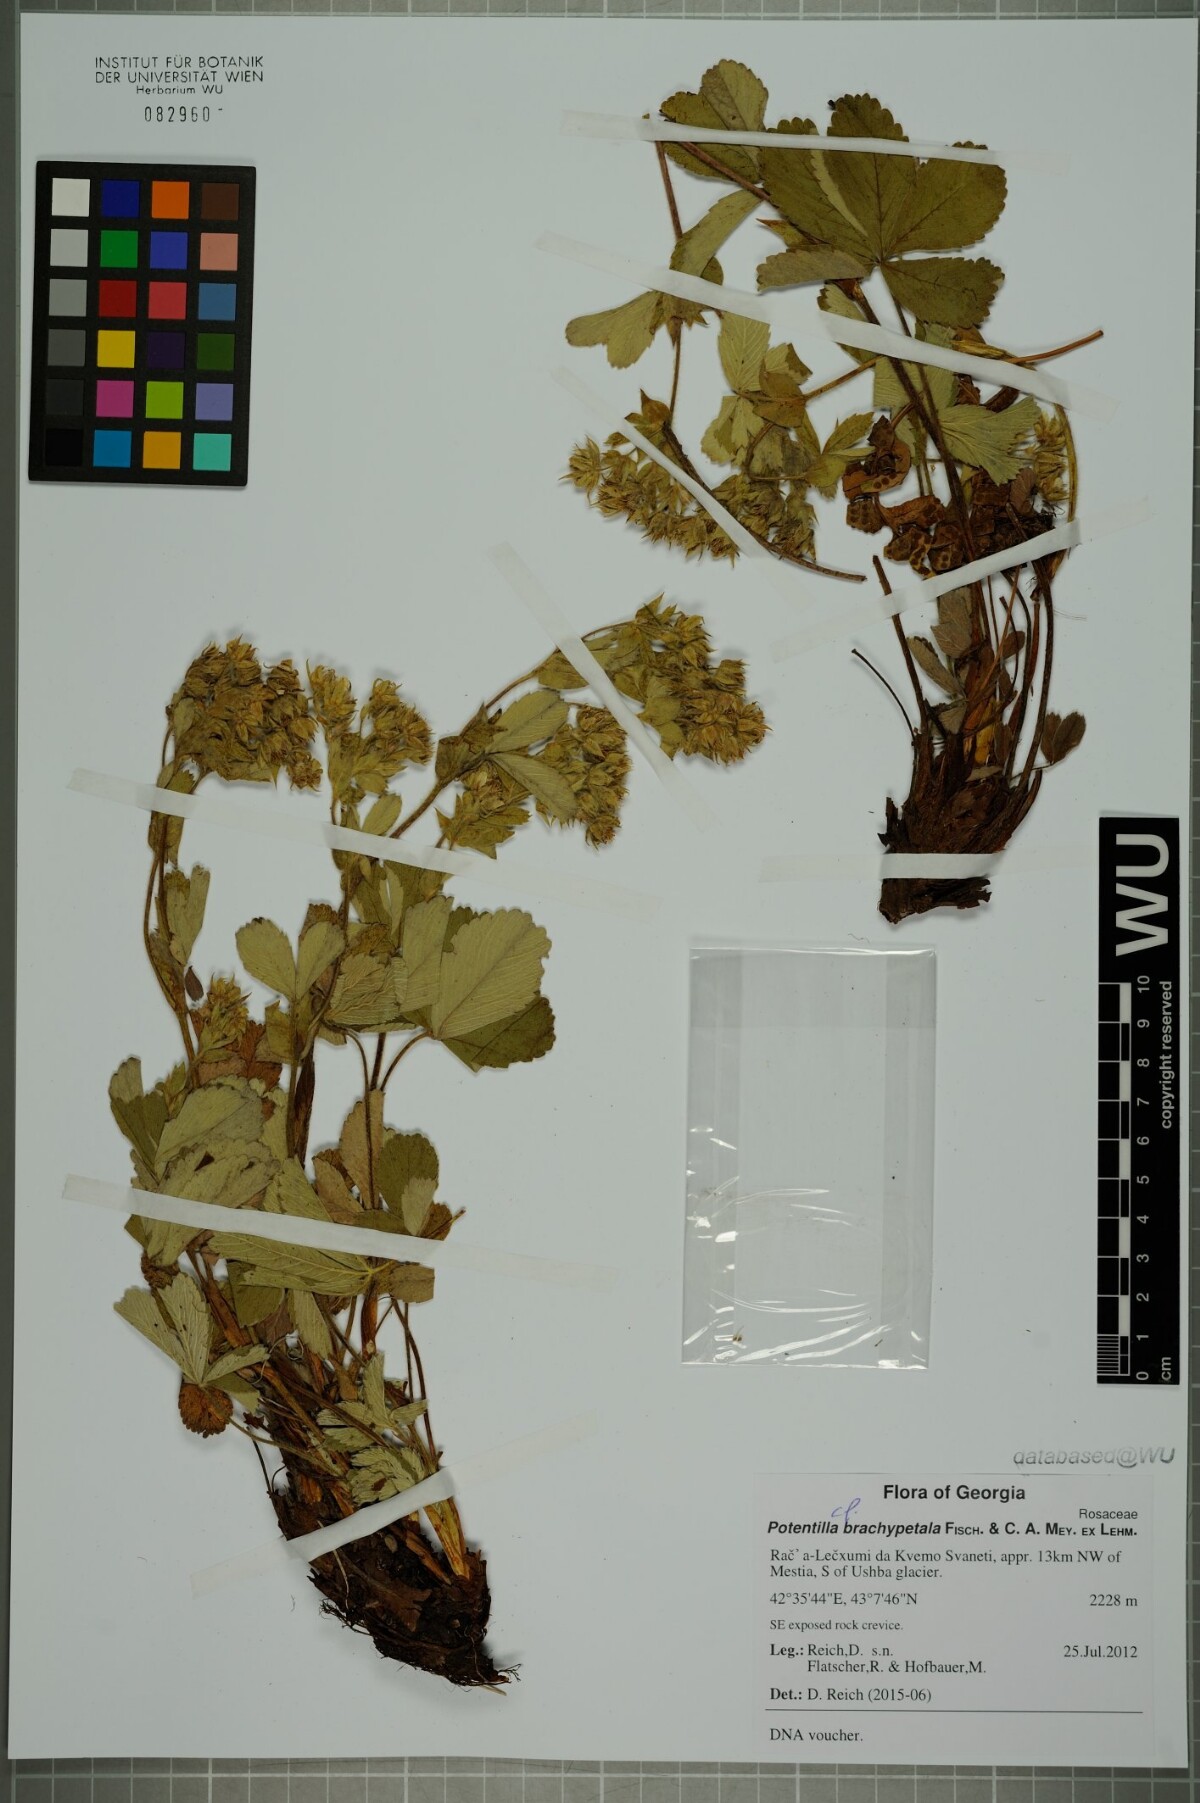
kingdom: Plantae
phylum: Tracheophyta
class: Magnoliopsida
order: Rosales
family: Rosaceae
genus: Potentilla
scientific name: Potentilla brachypetala
